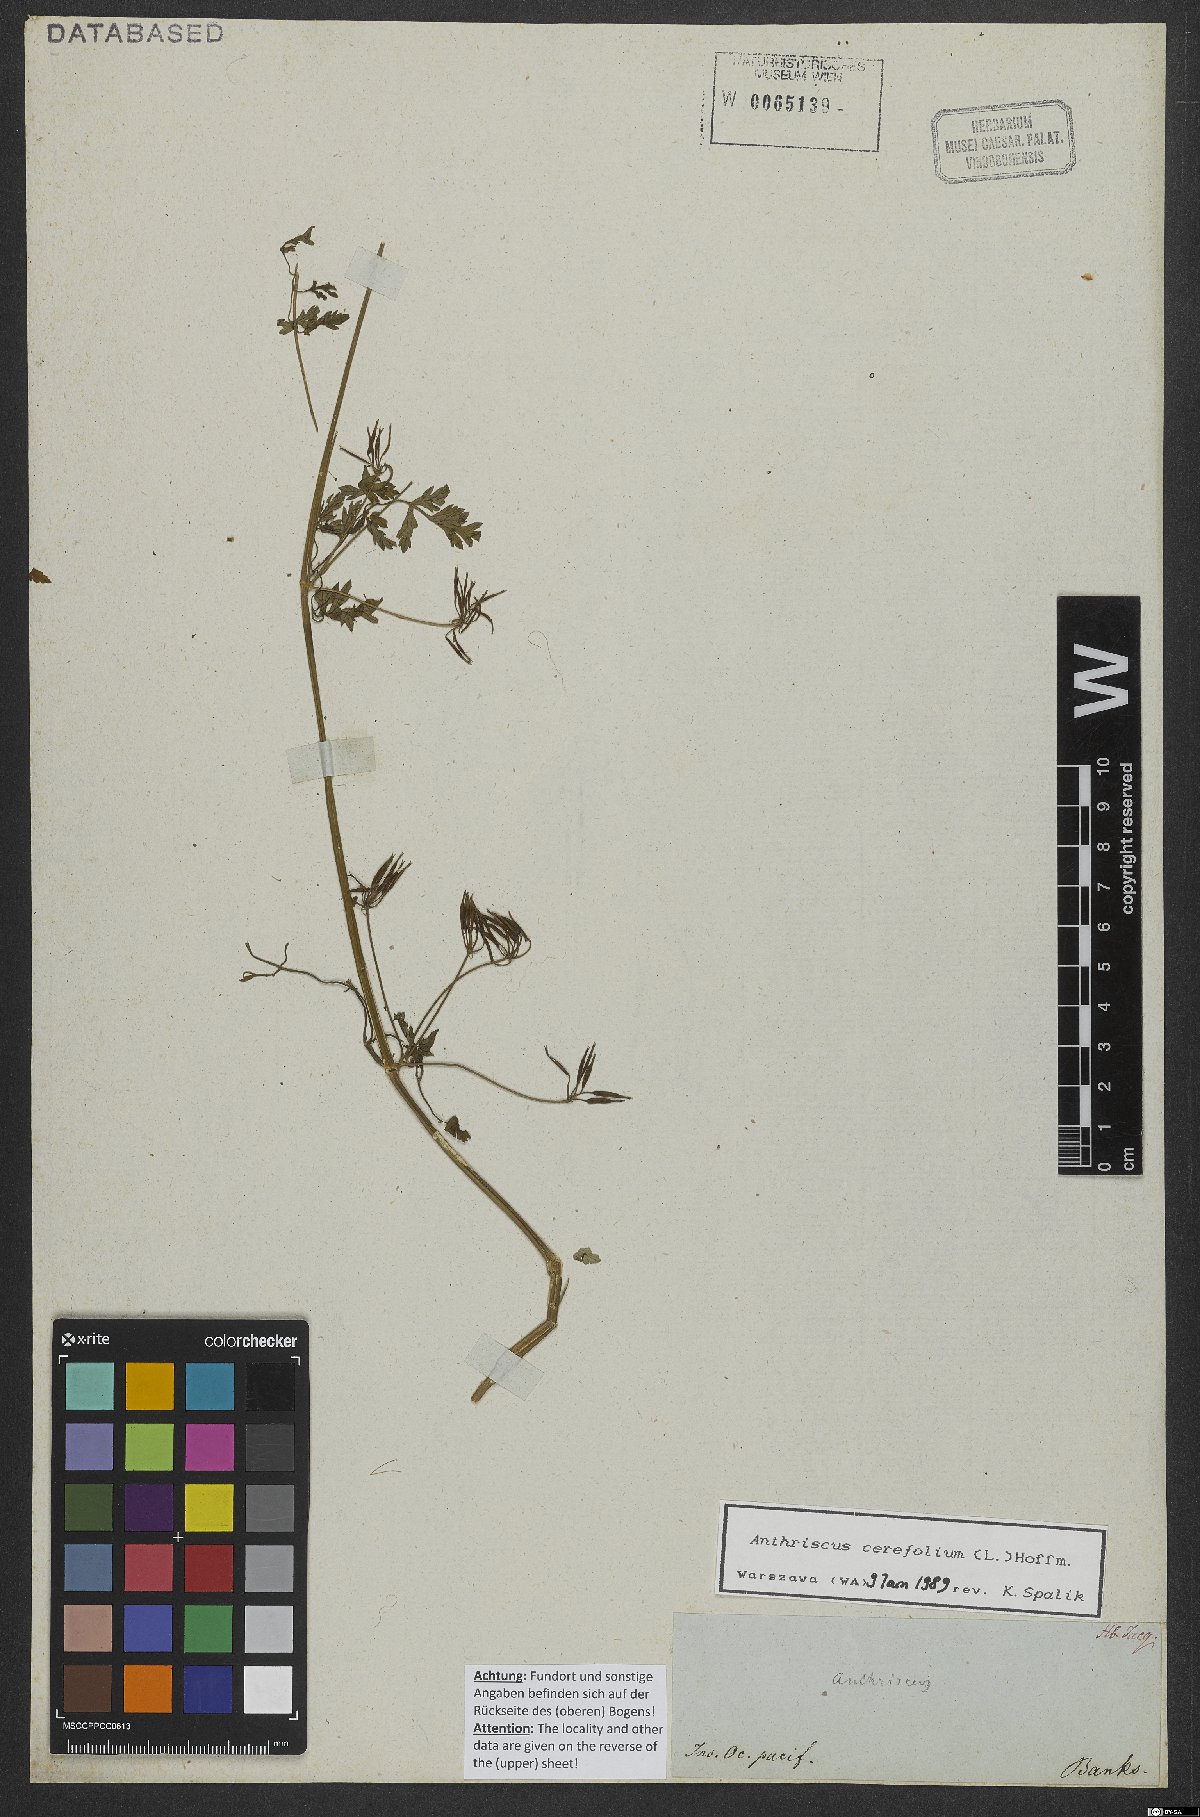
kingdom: Plantae
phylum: Tracheophyta
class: Magnoliopsida
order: Apiales
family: Apiaceae
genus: Anthriscus
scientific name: Anthriscus cerefolium
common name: Garden chervil
